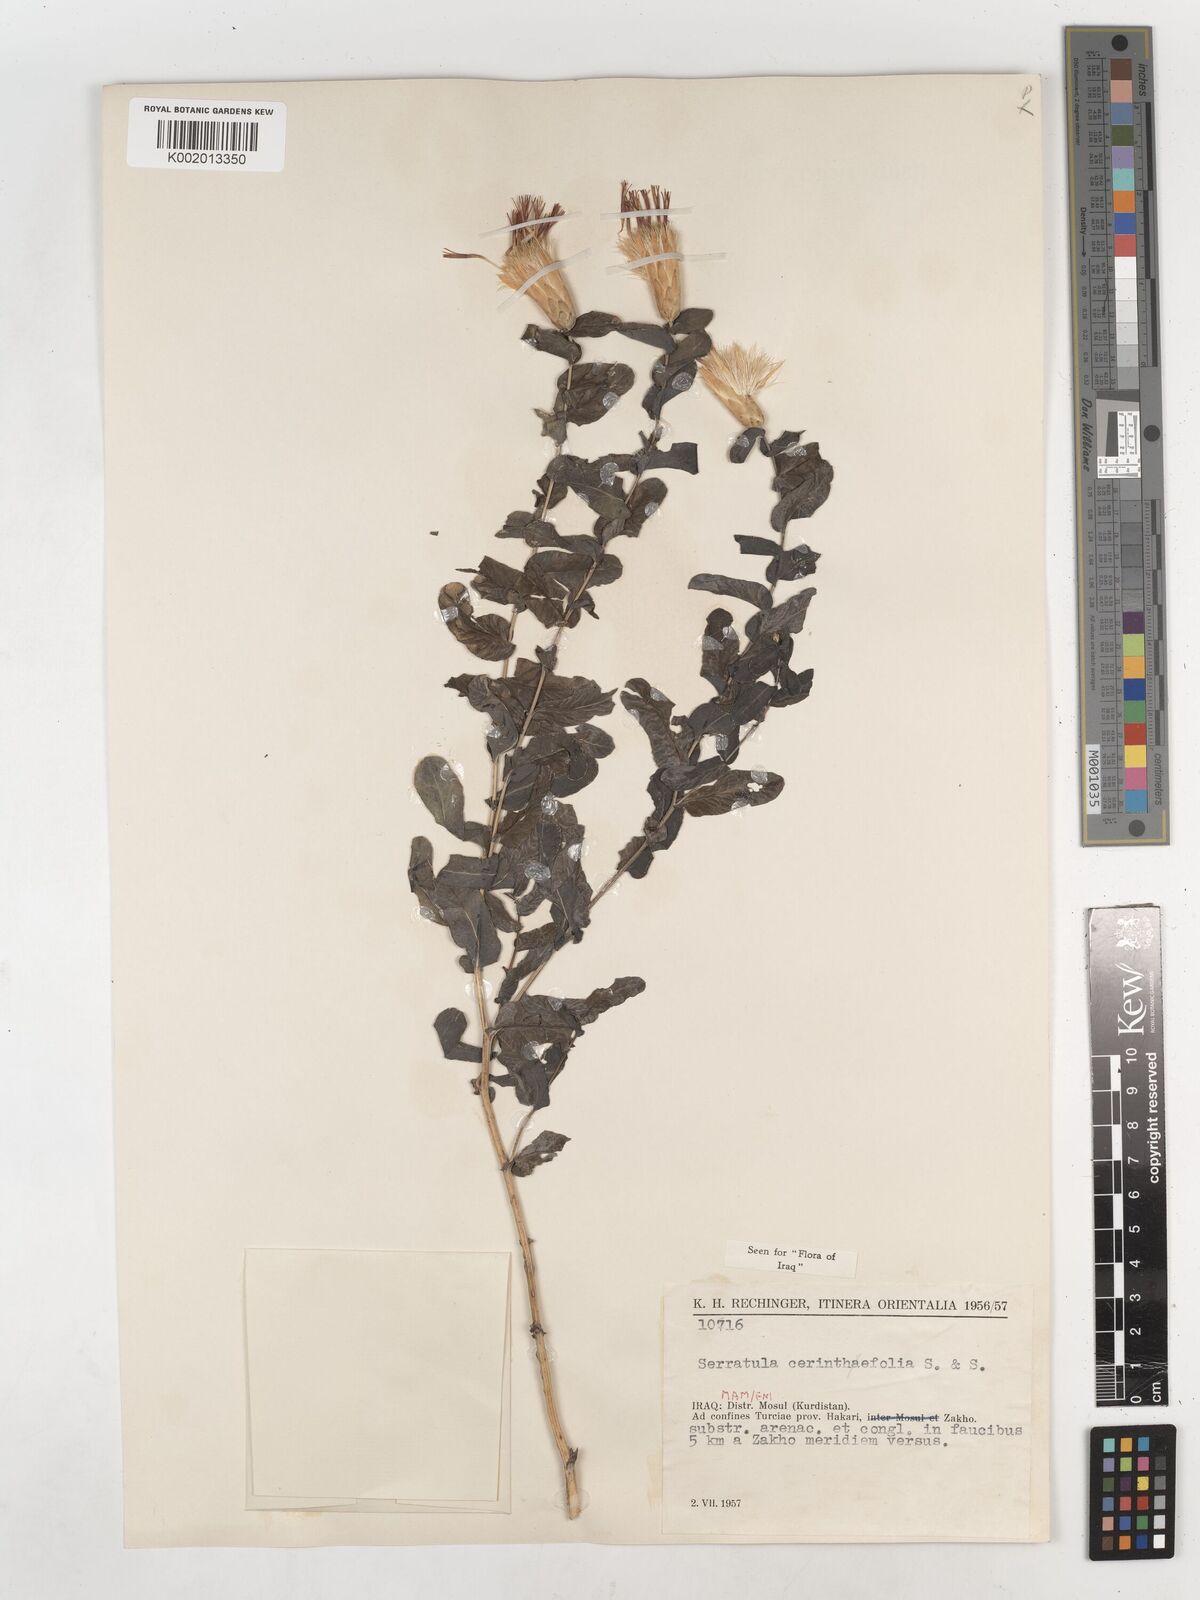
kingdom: Plantae
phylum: Tracheophyta
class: Magnoliopsida
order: Asterales
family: Asteraceae
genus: Klasea
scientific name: Klasea cerinthifolia
